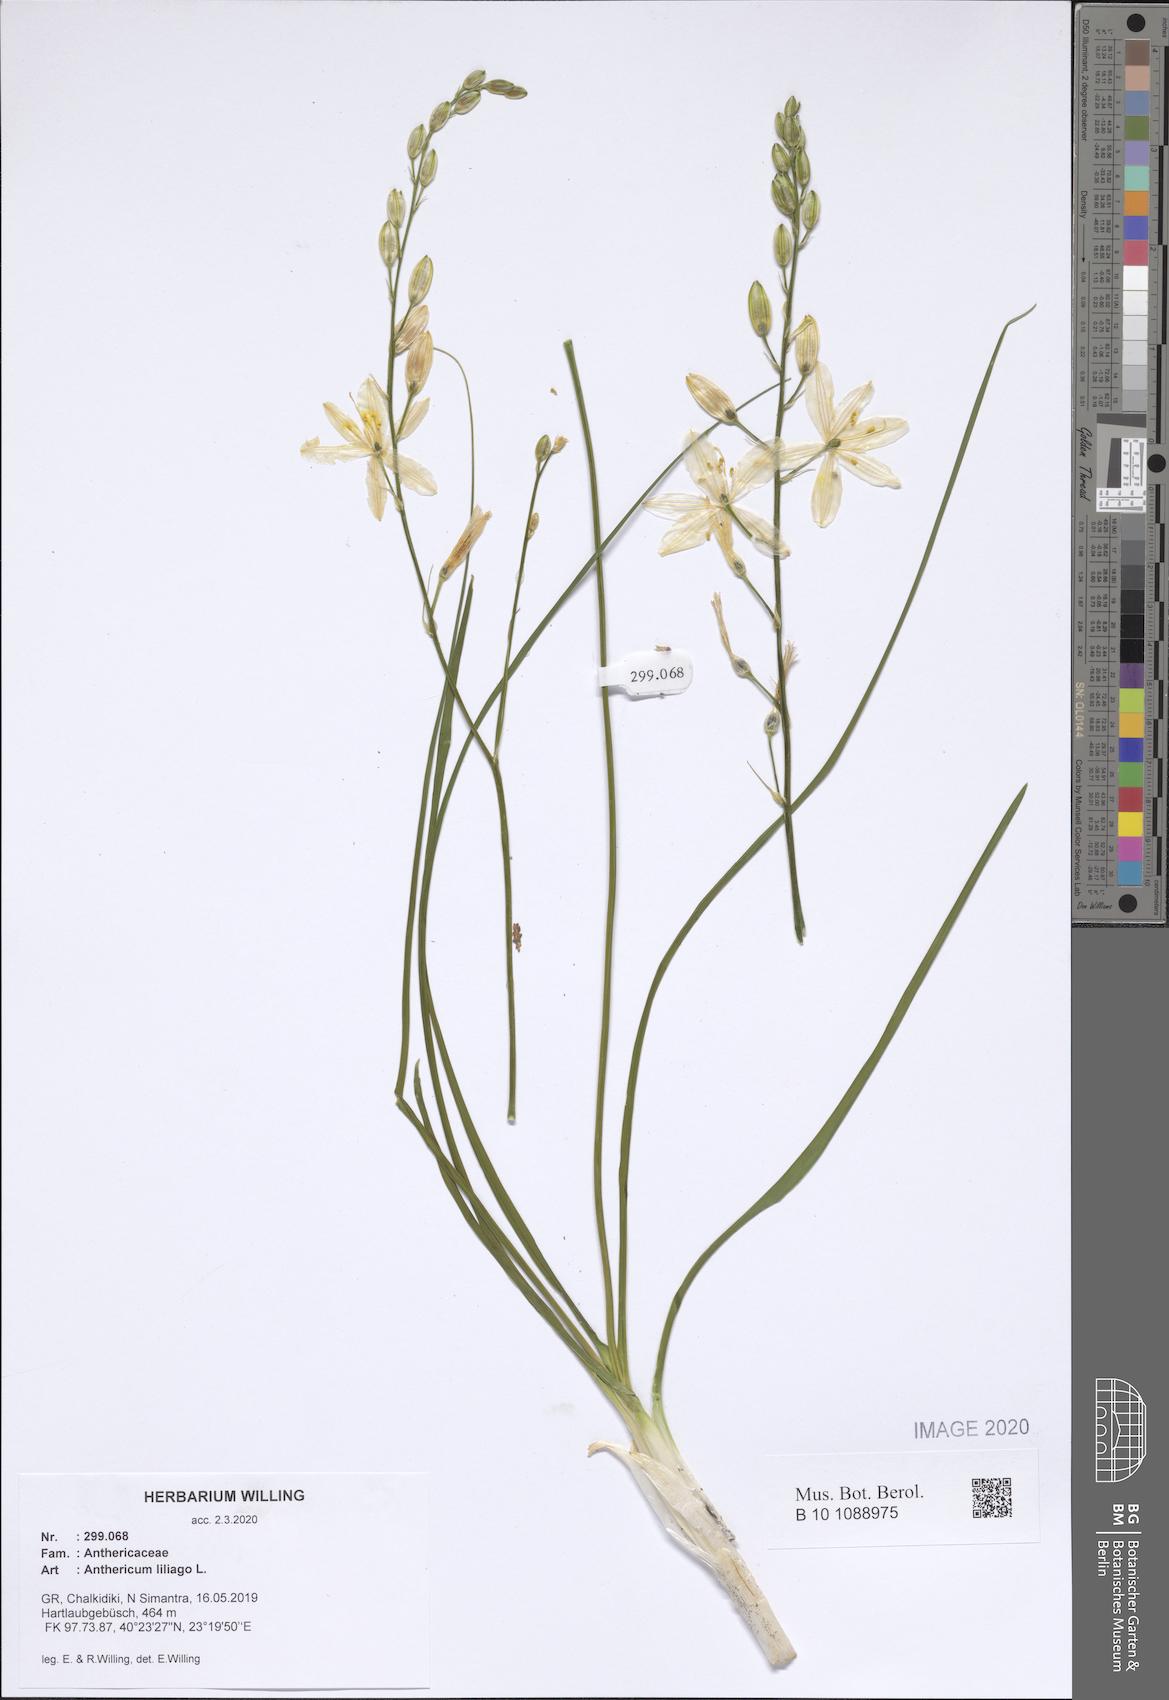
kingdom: Plantae
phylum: Tracheophyta
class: Liliopsida
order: Asparagales
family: Asparagaceae
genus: Anthericum
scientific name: Anthericum liliago
